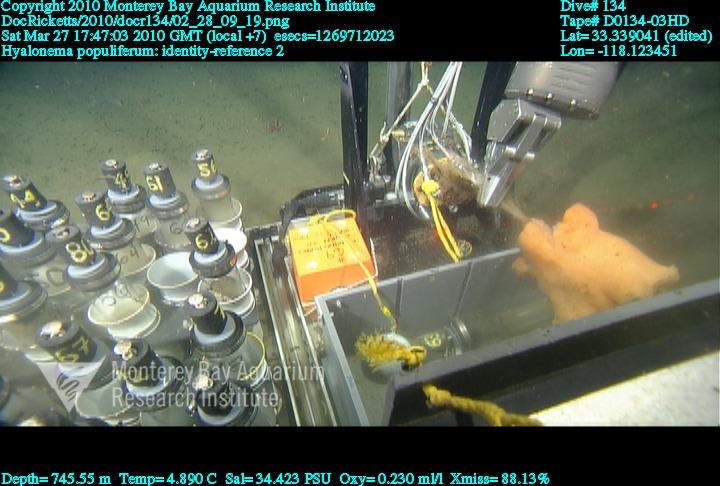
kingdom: Animalia
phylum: Porifera
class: Hexactinellida
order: Amphidiscosida
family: Hyalonematidae
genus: Hyalonema
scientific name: Hyalonema populiferum
